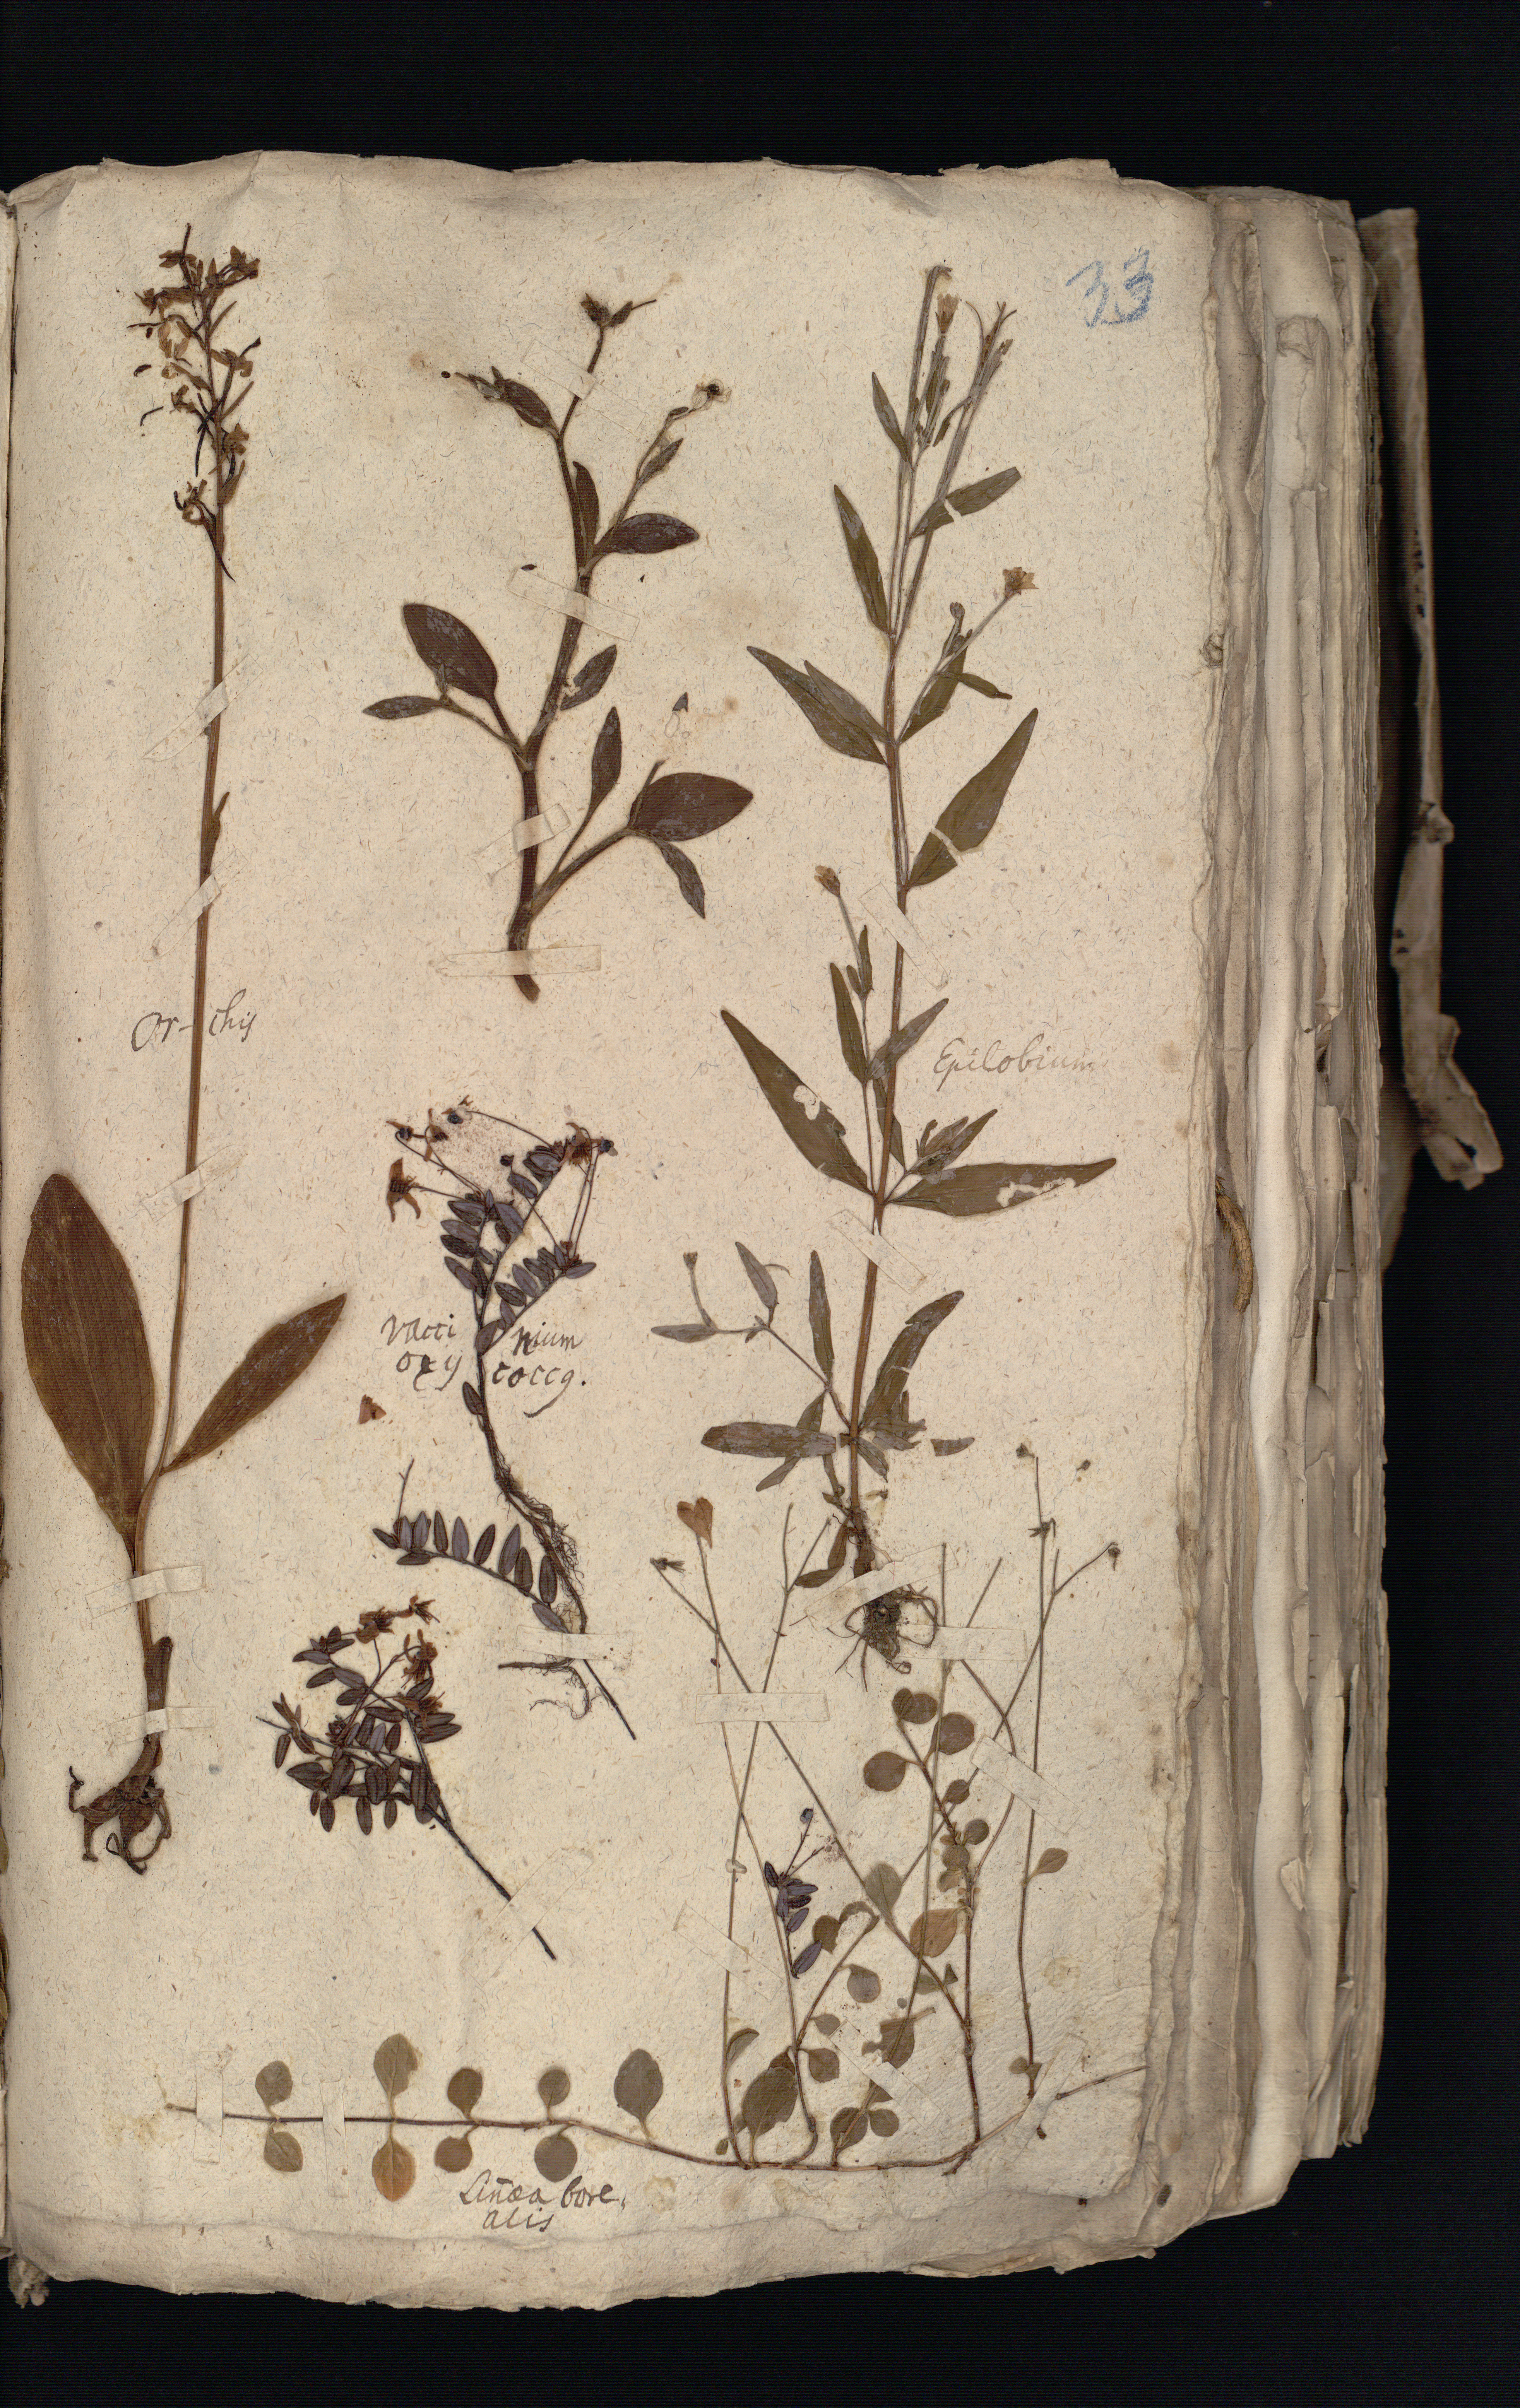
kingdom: Plantae
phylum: Tracheophyta
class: Magnoliopsida
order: Dipsacales
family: Caprifoliaceae
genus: Linnaea
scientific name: Linnaea borealis
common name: Twinflower
